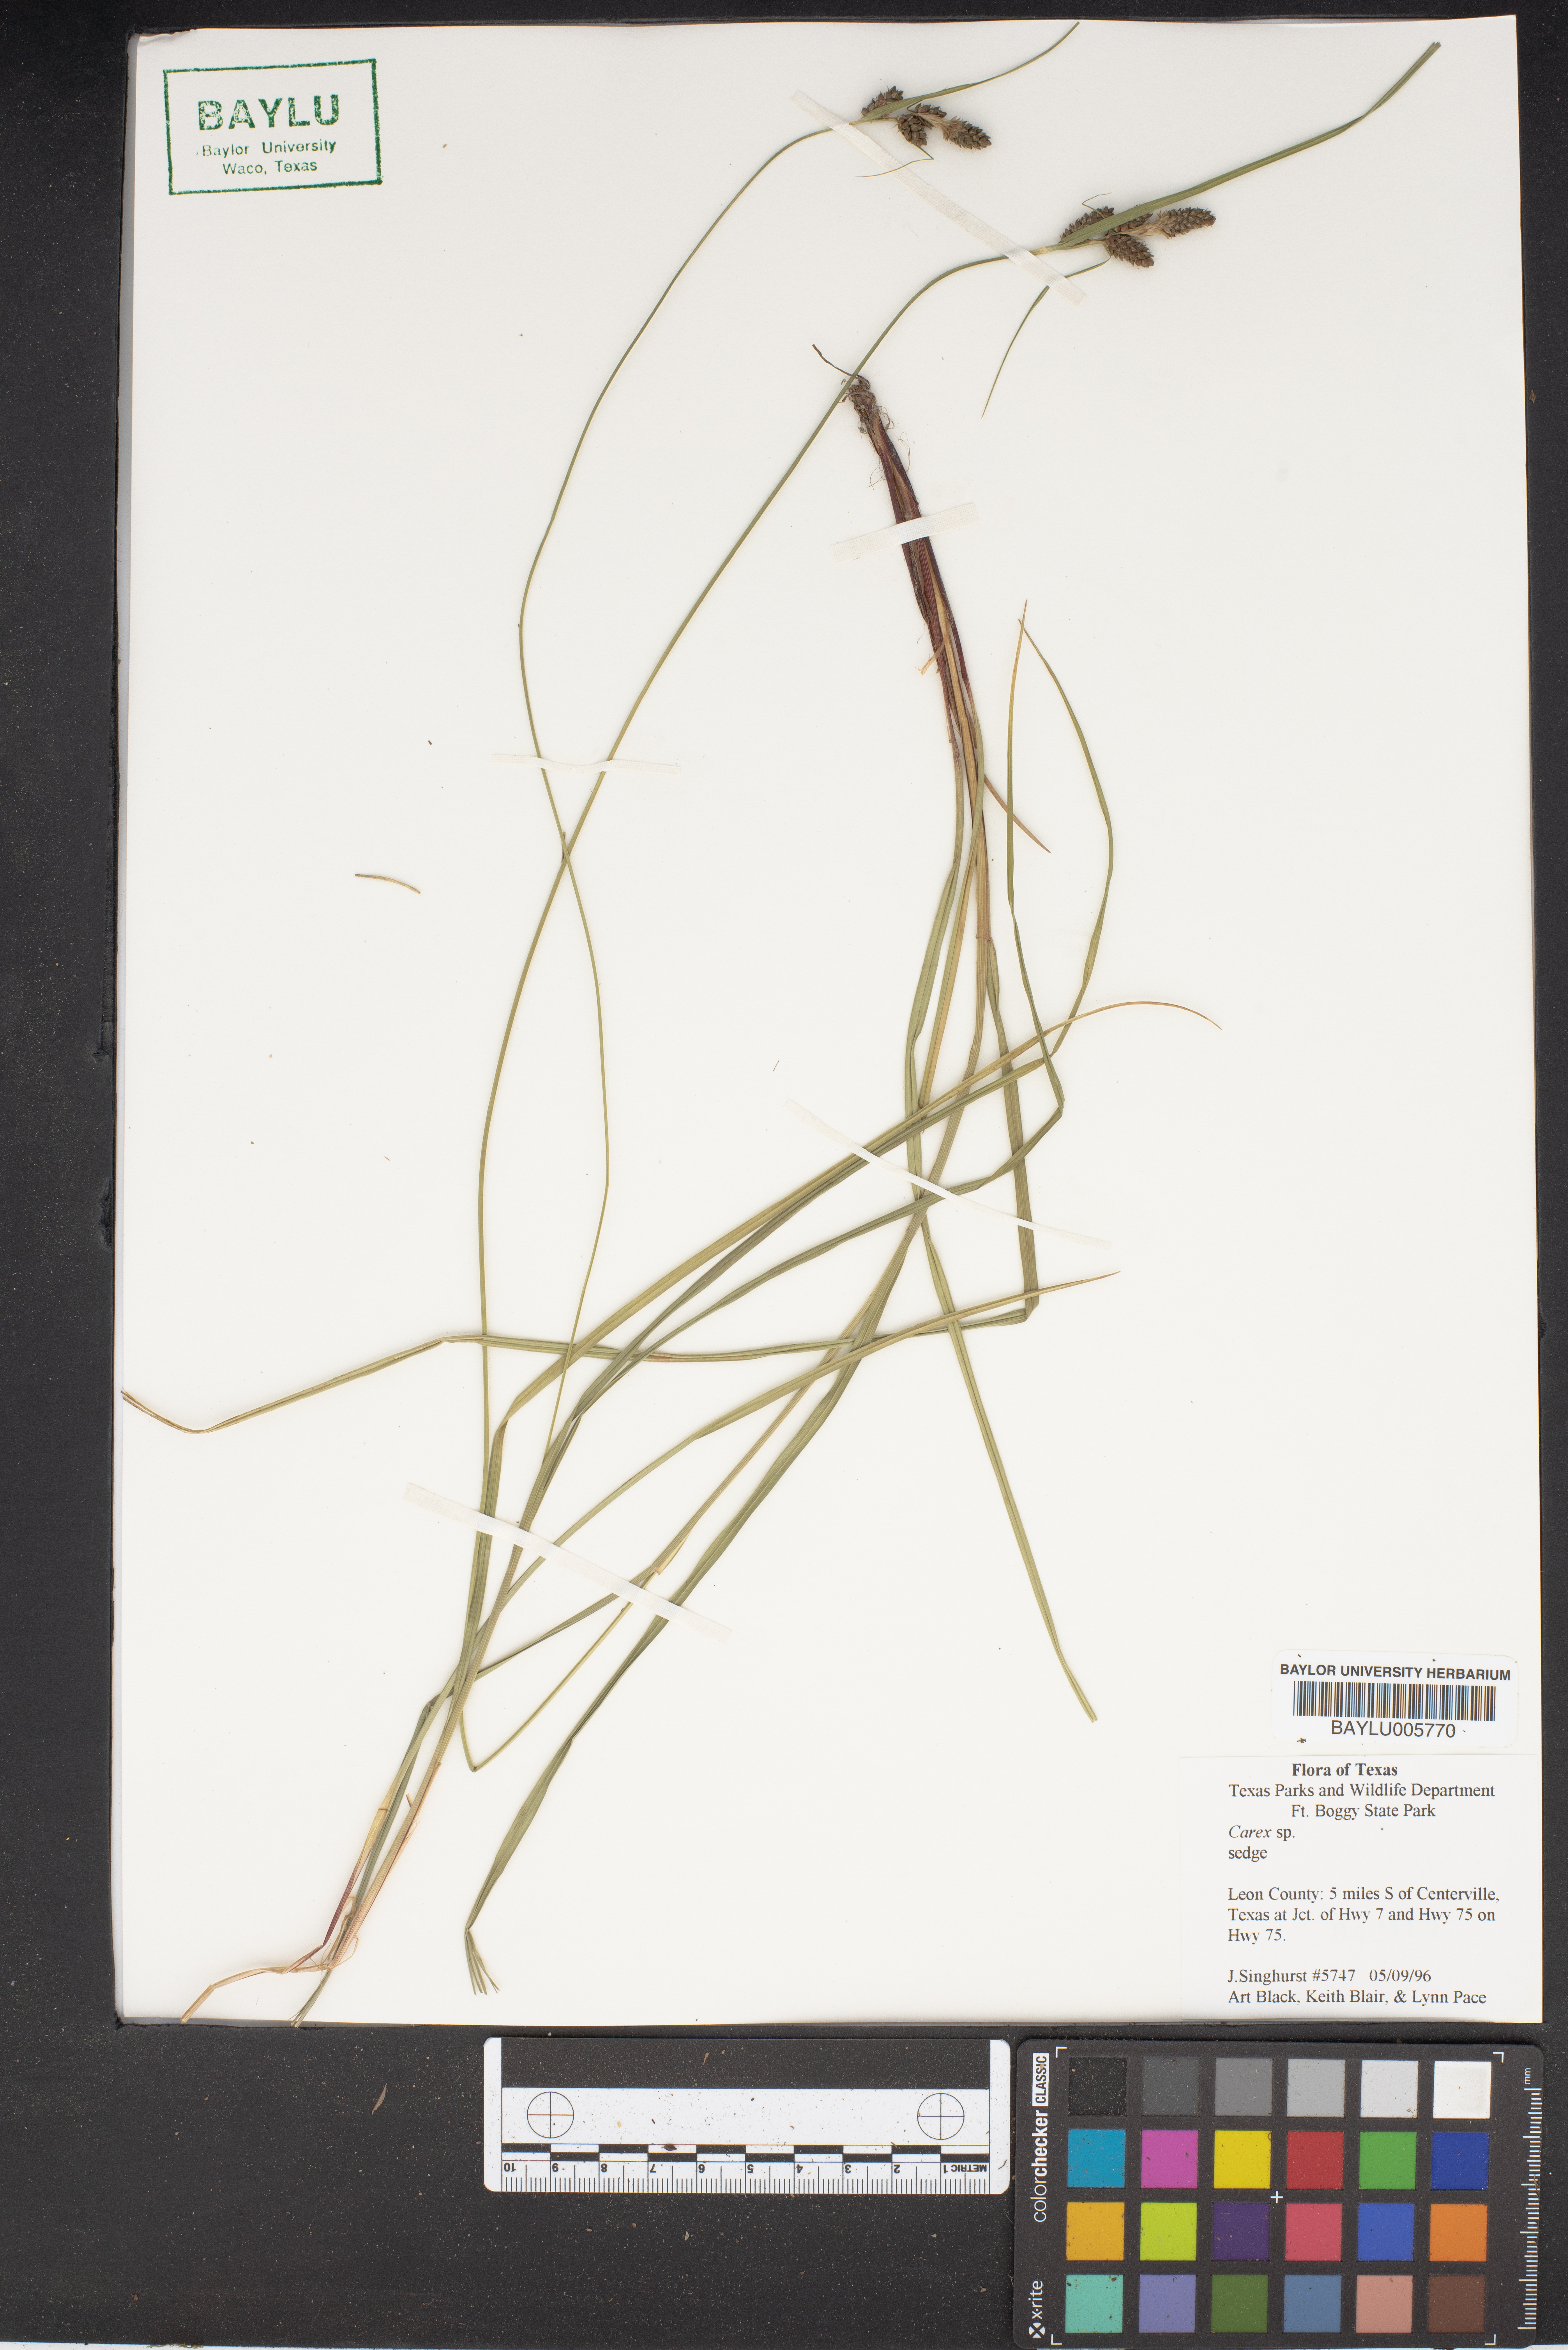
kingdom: Plantae
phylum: Tracheophyta
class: Liliopsida
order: Poales
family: Cyperaceae
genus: Carex
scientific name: Carex
